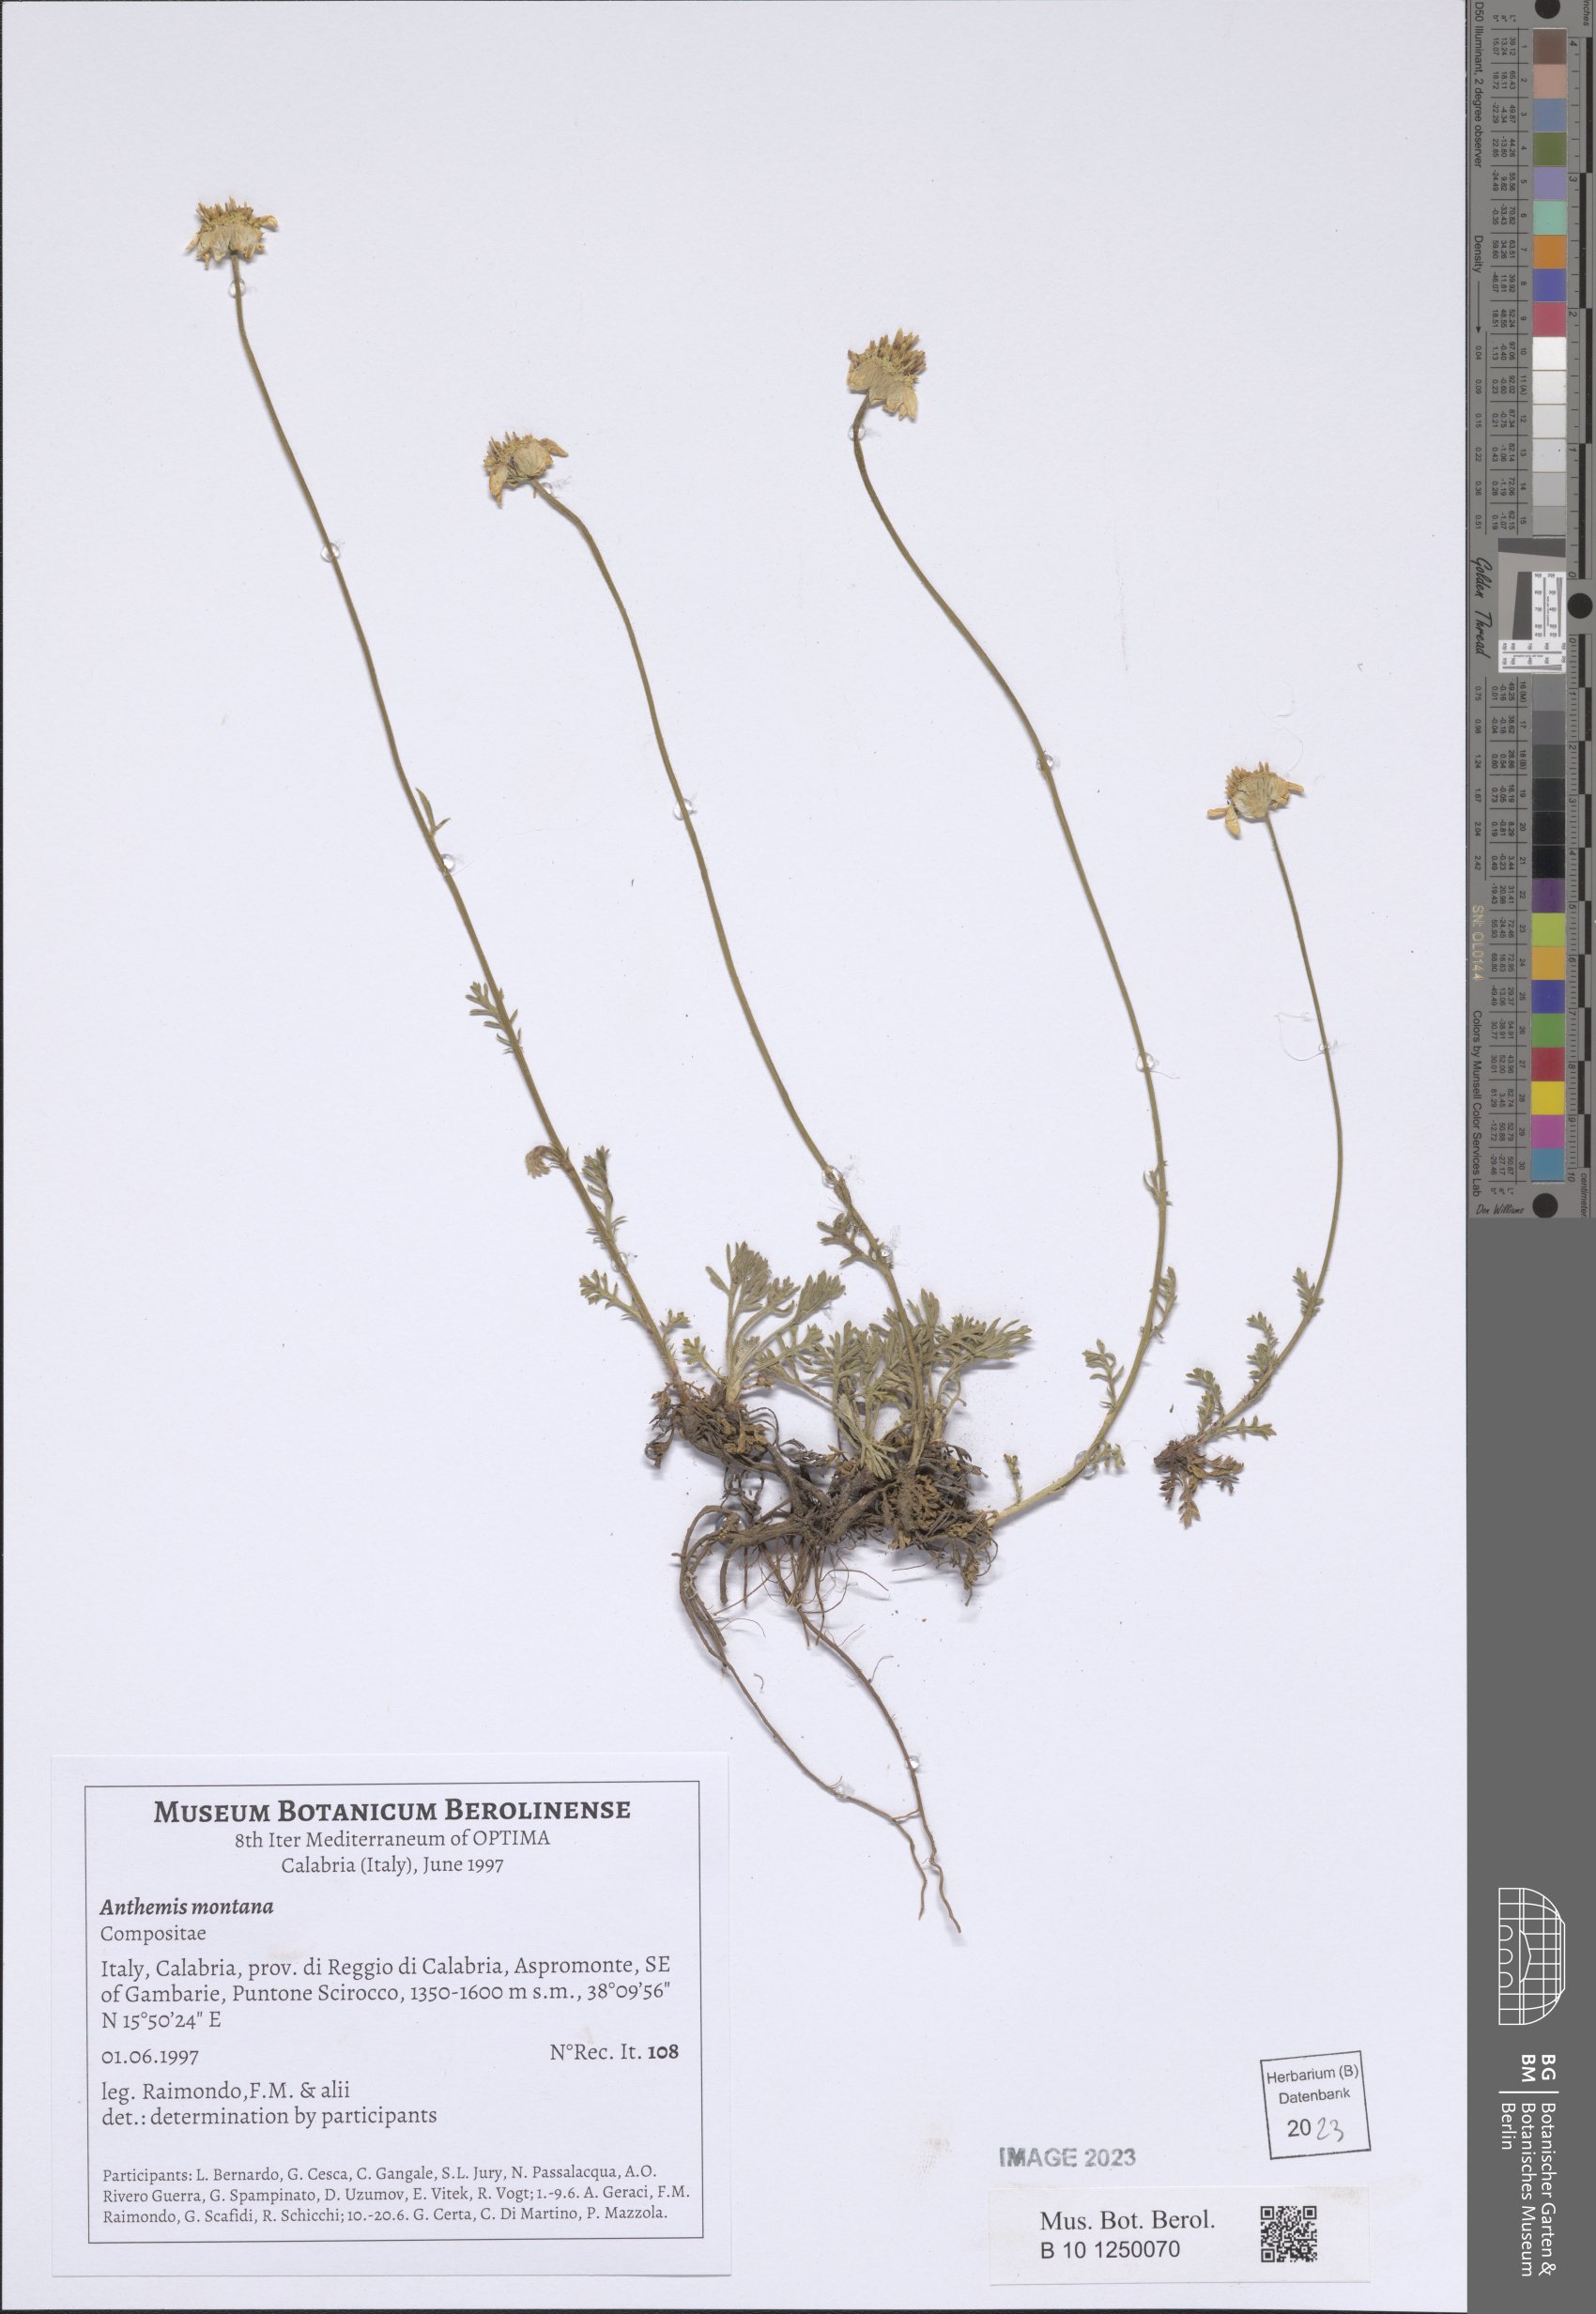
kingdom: Plantae
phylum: Tracheophyta
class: Magnoliopsida
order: Asterales
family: Asteraceae
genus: Anthemis
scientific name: Anthemis cretica
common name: Mountain dog-daisy
